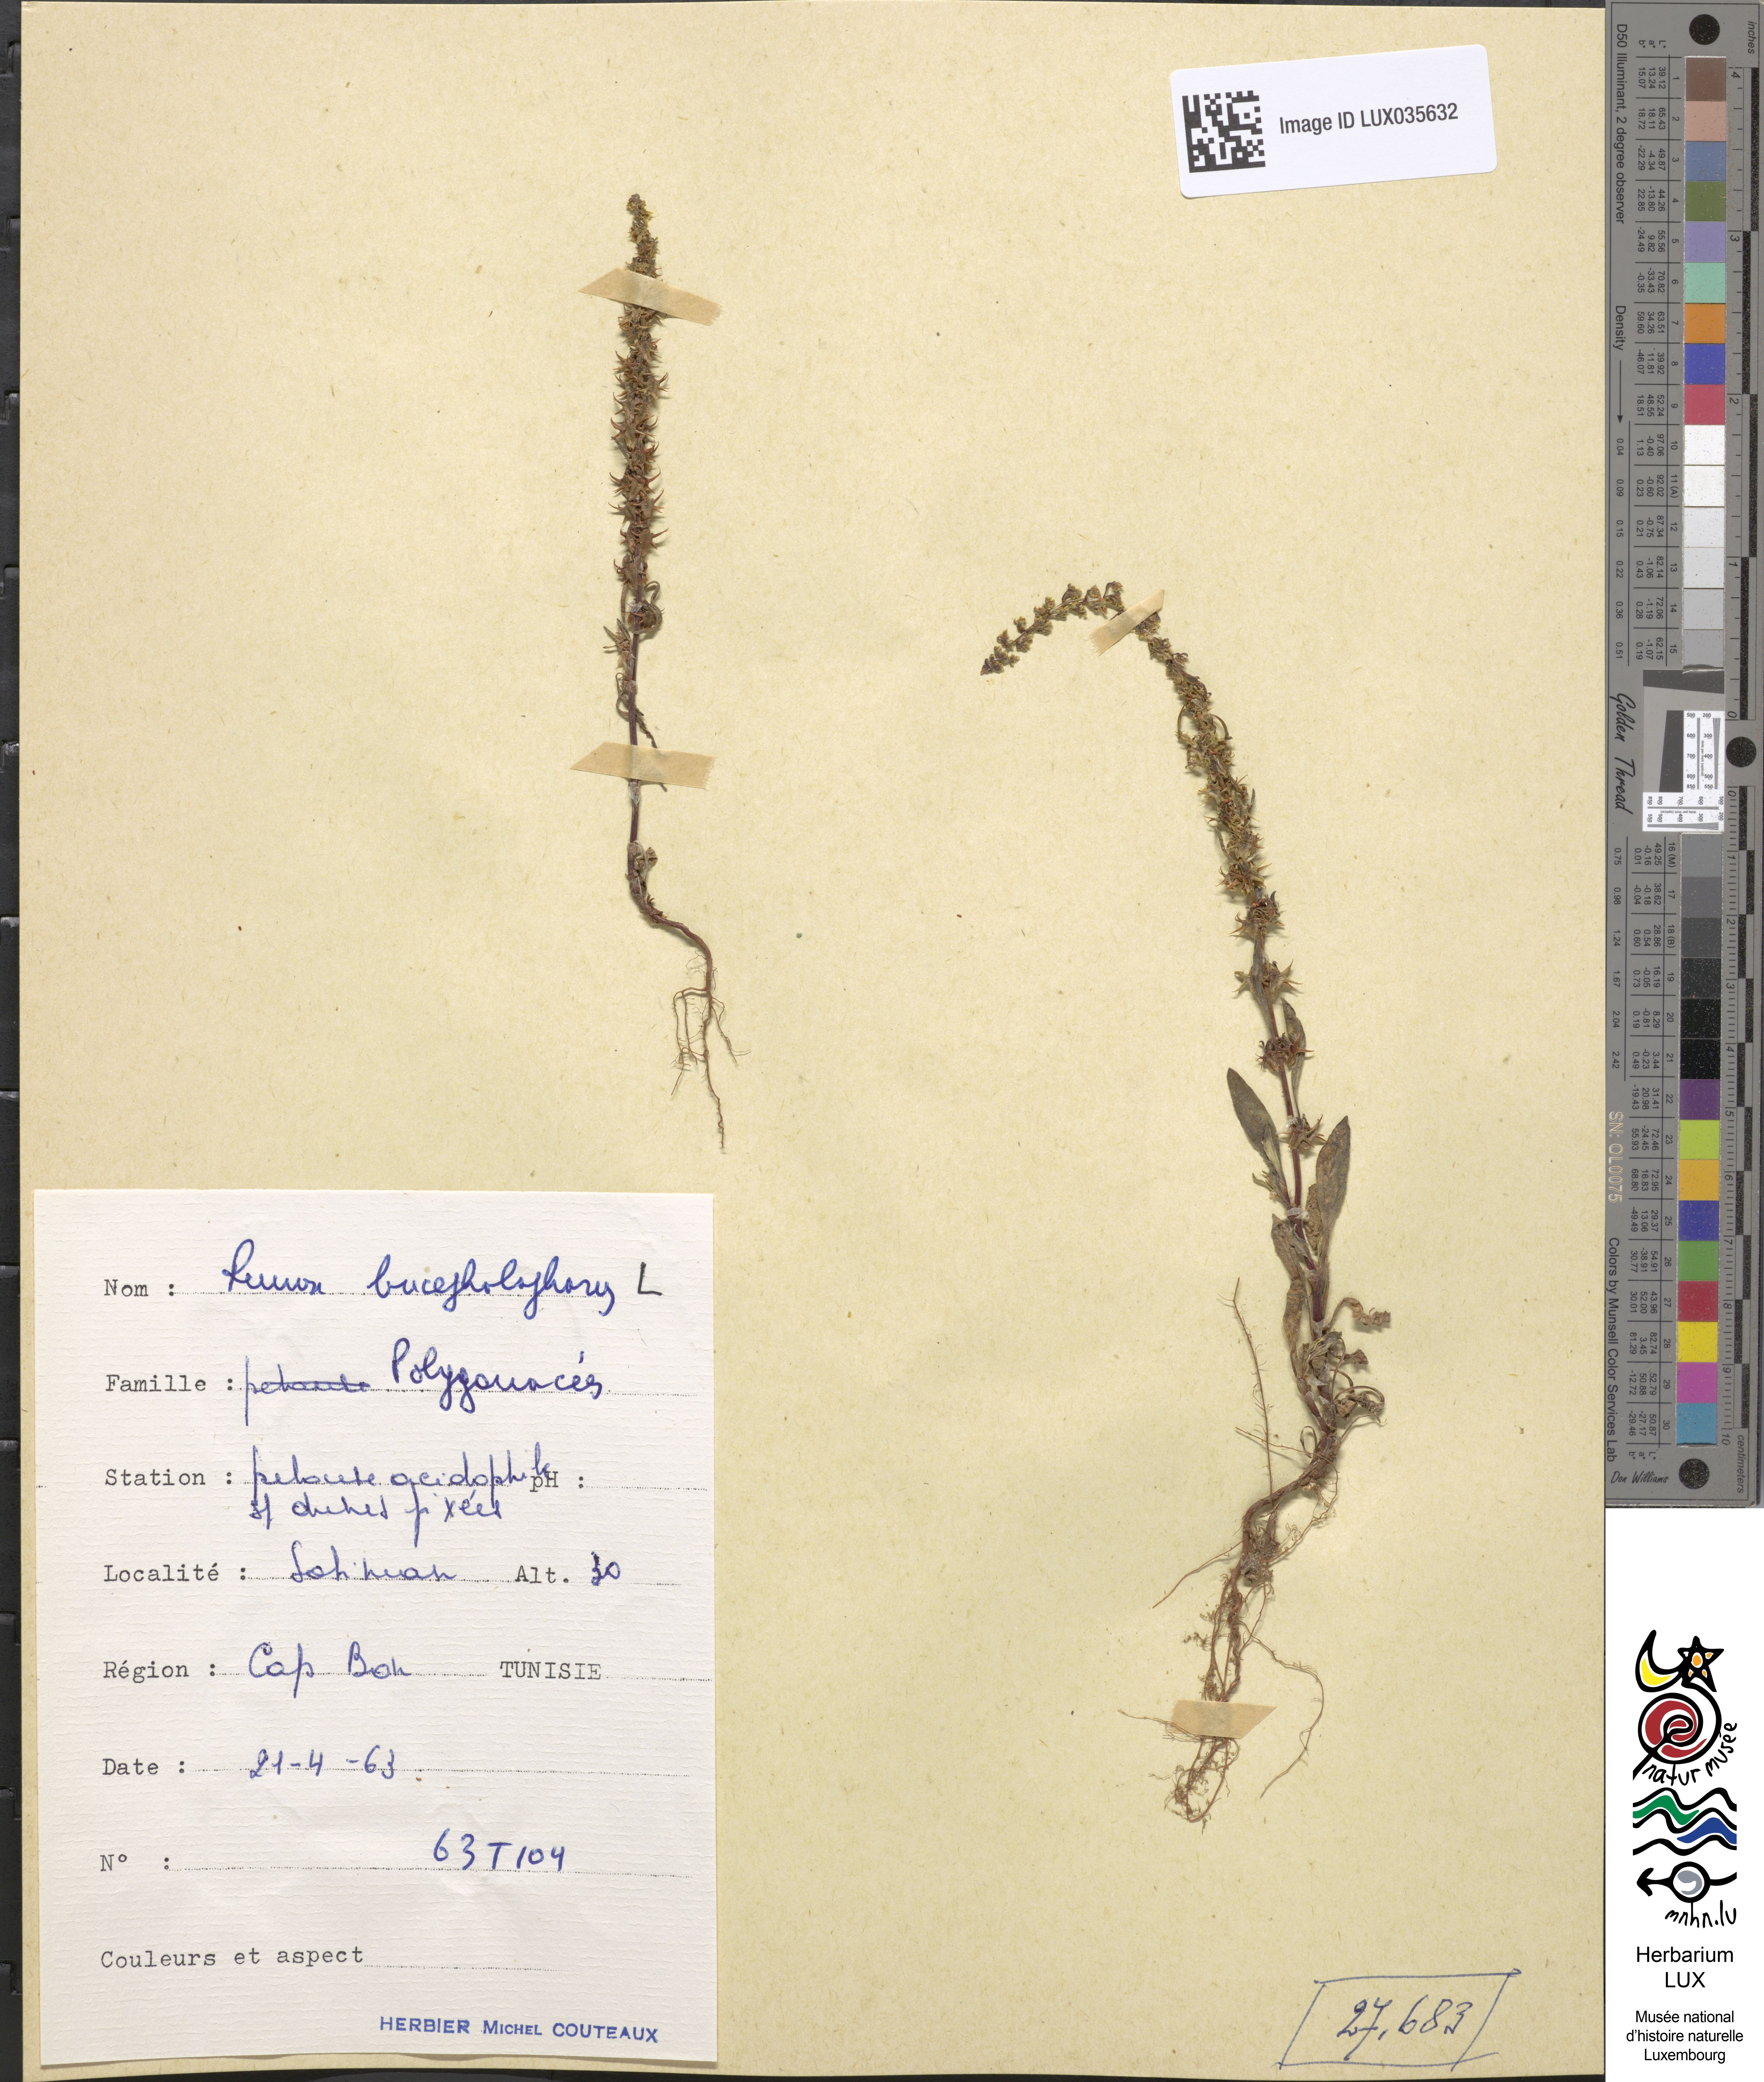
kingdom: Plantae
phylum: Tracheophyta
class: Magnoliopsida
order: Caryophyllales
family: Polygonaceae
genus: Rumex
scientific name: Rumex bucephalophorus
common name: Red dock
